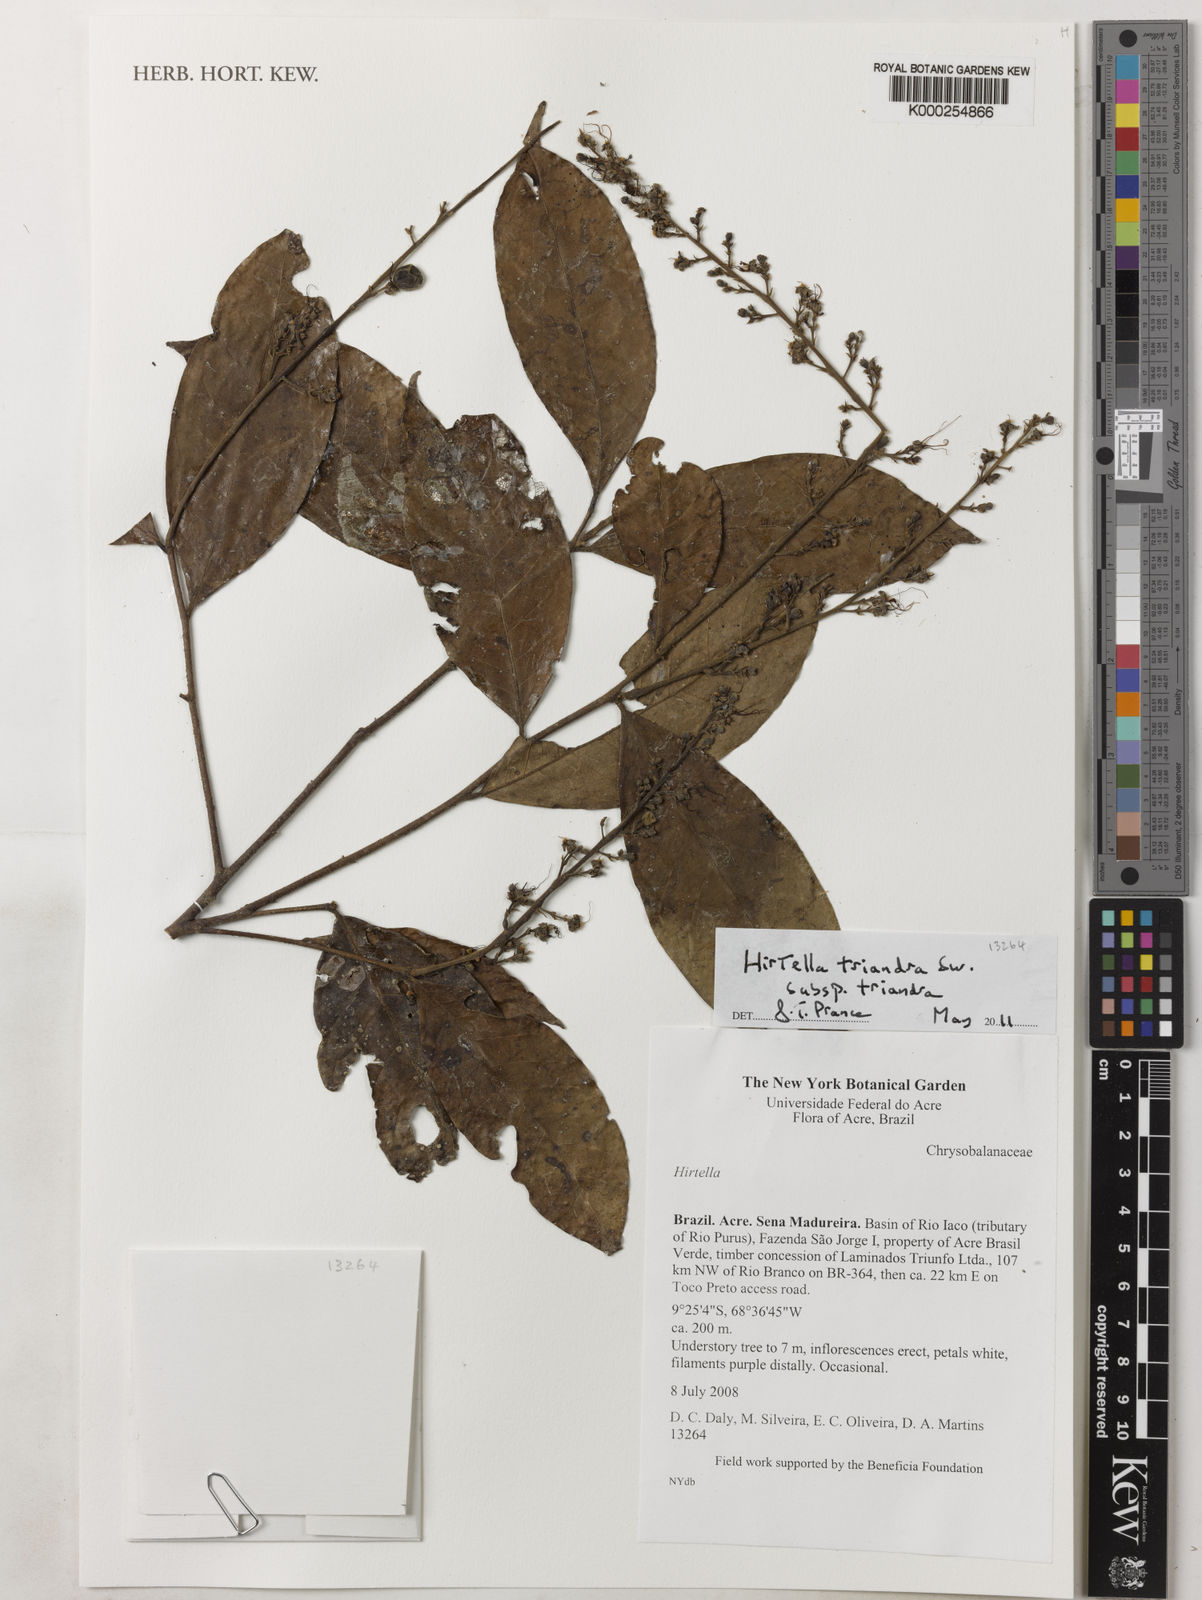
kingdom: Plantae
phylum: Tracheophyta
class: Magnoliopsida
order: Malpighiales
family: Chrysobalanaceae
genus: Hirtella
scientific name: Hirtella triandra
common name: Hairy plum
